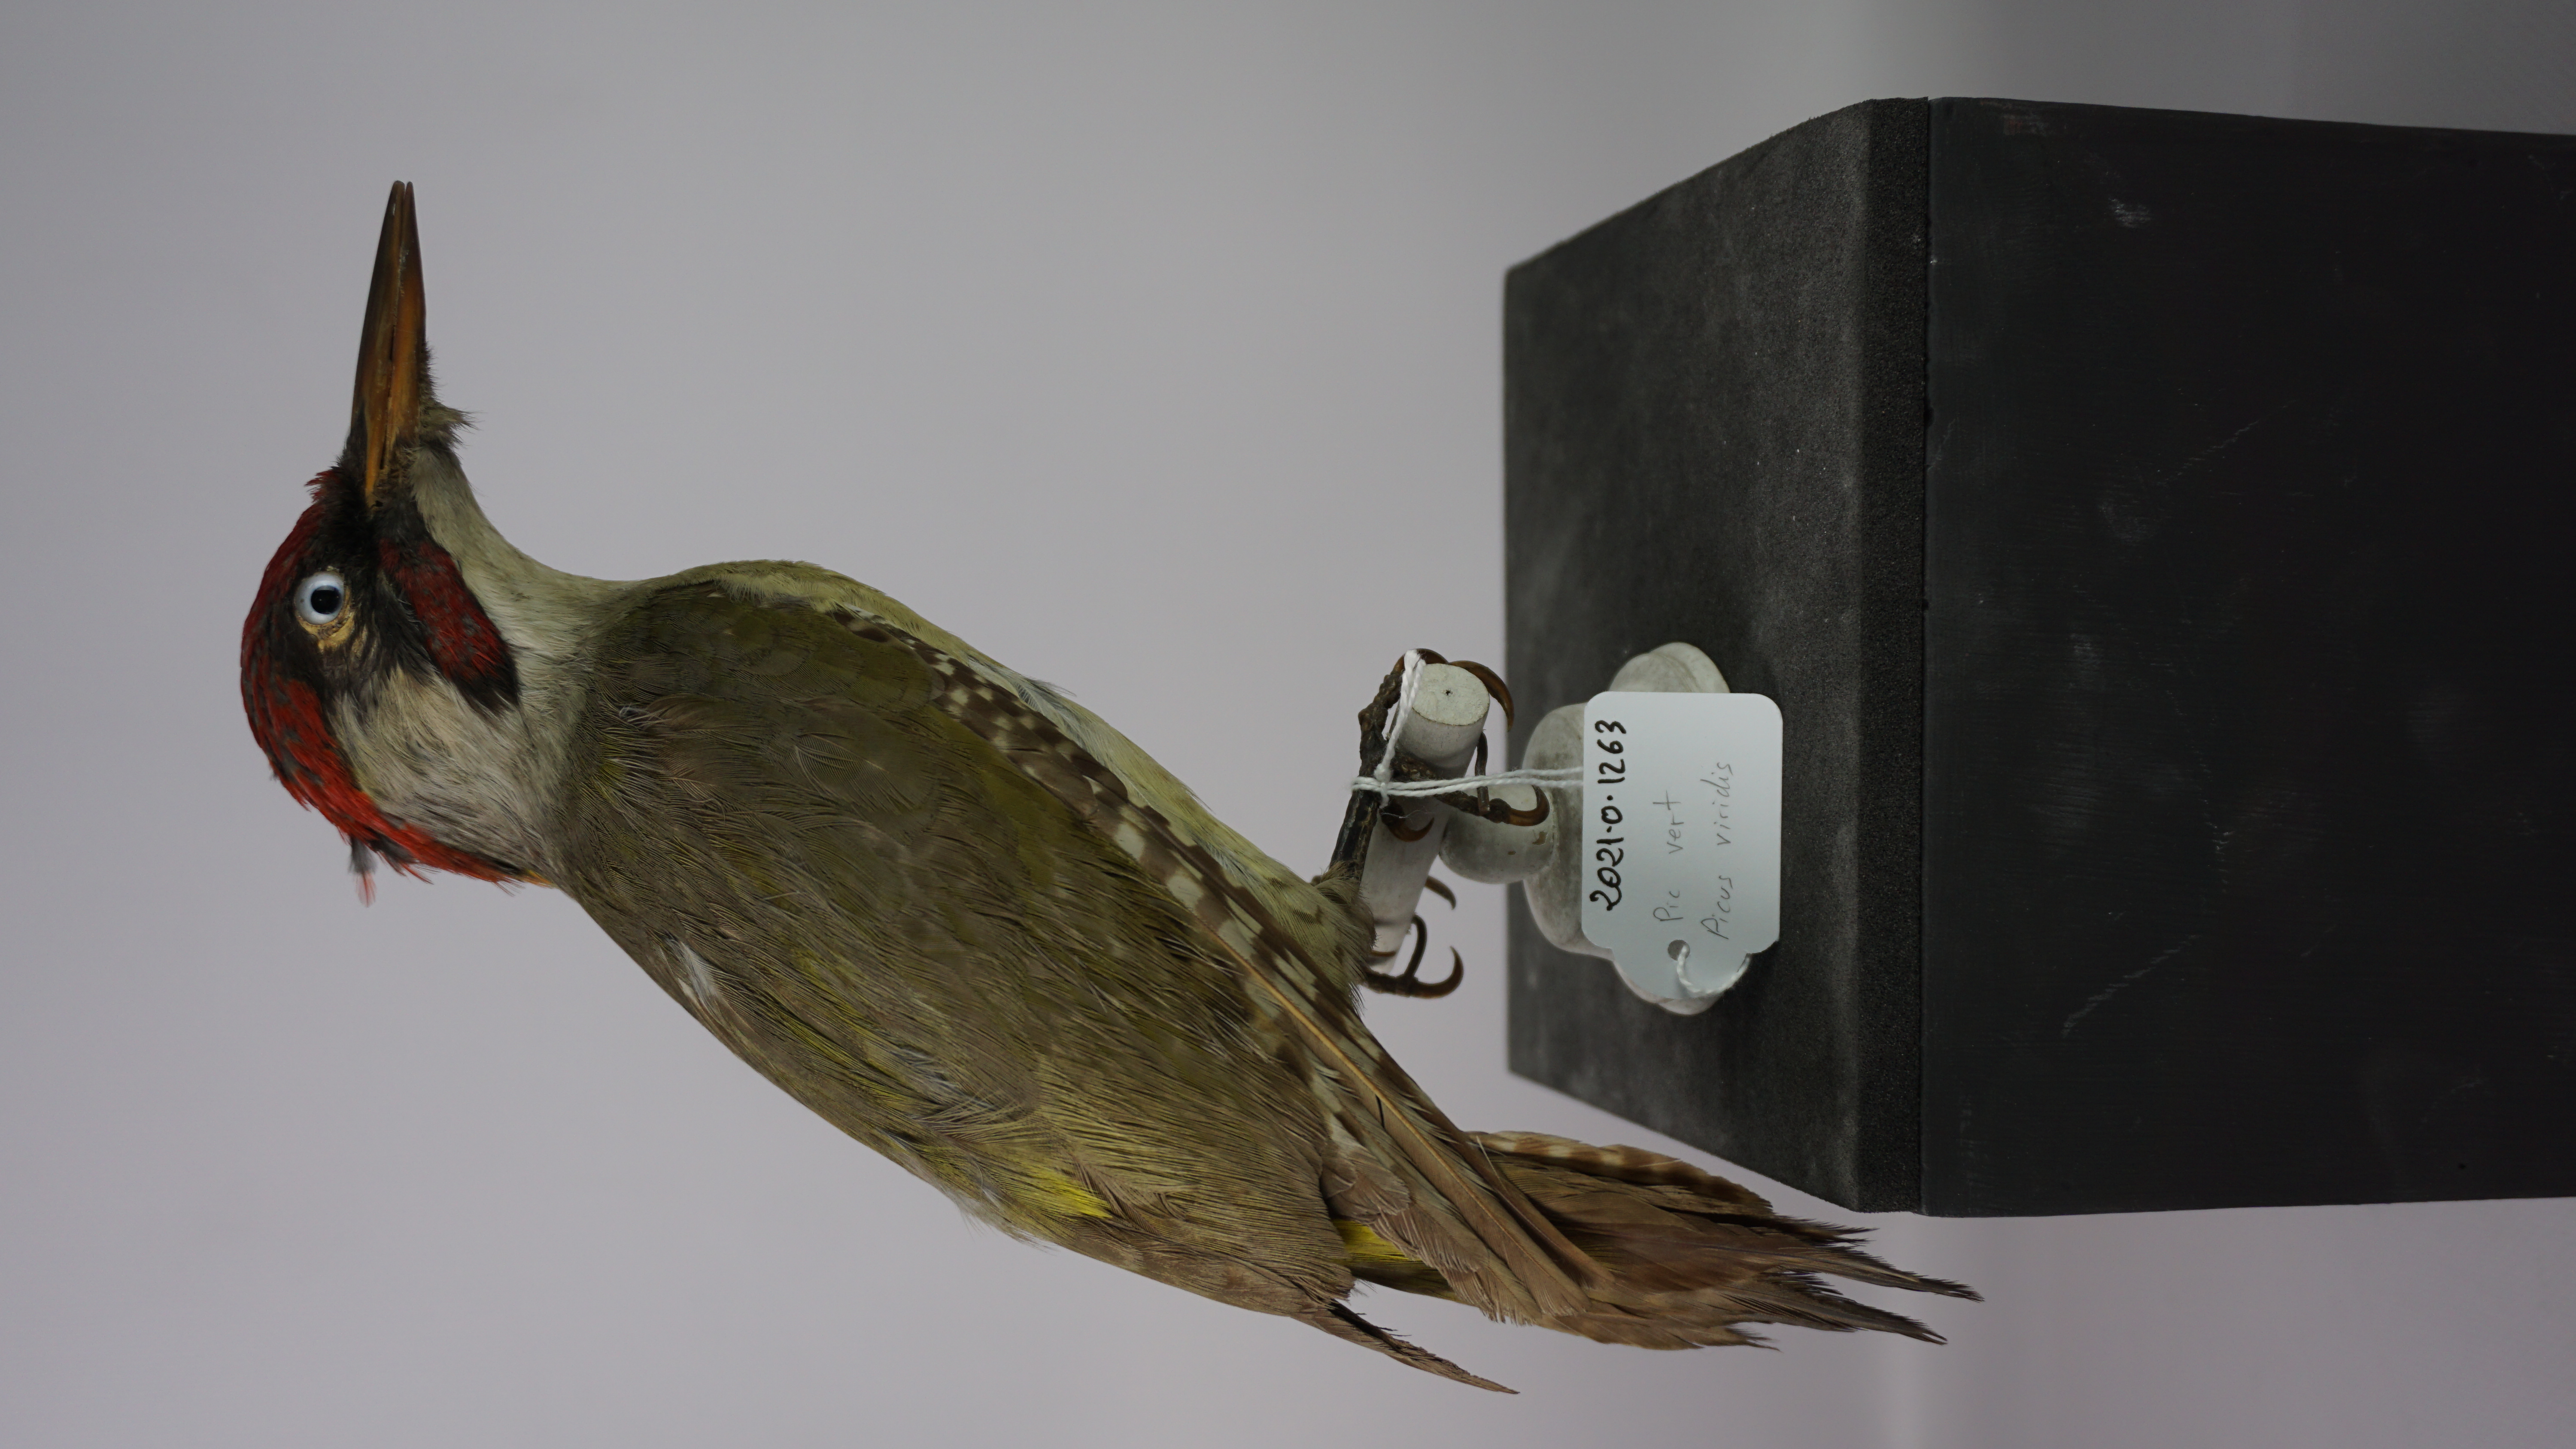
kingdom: Animalia
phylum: Chordata
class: Aves
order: Piciformes
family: Picidae
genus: Picus
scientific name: Picus viridis
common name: European green woodpecker
